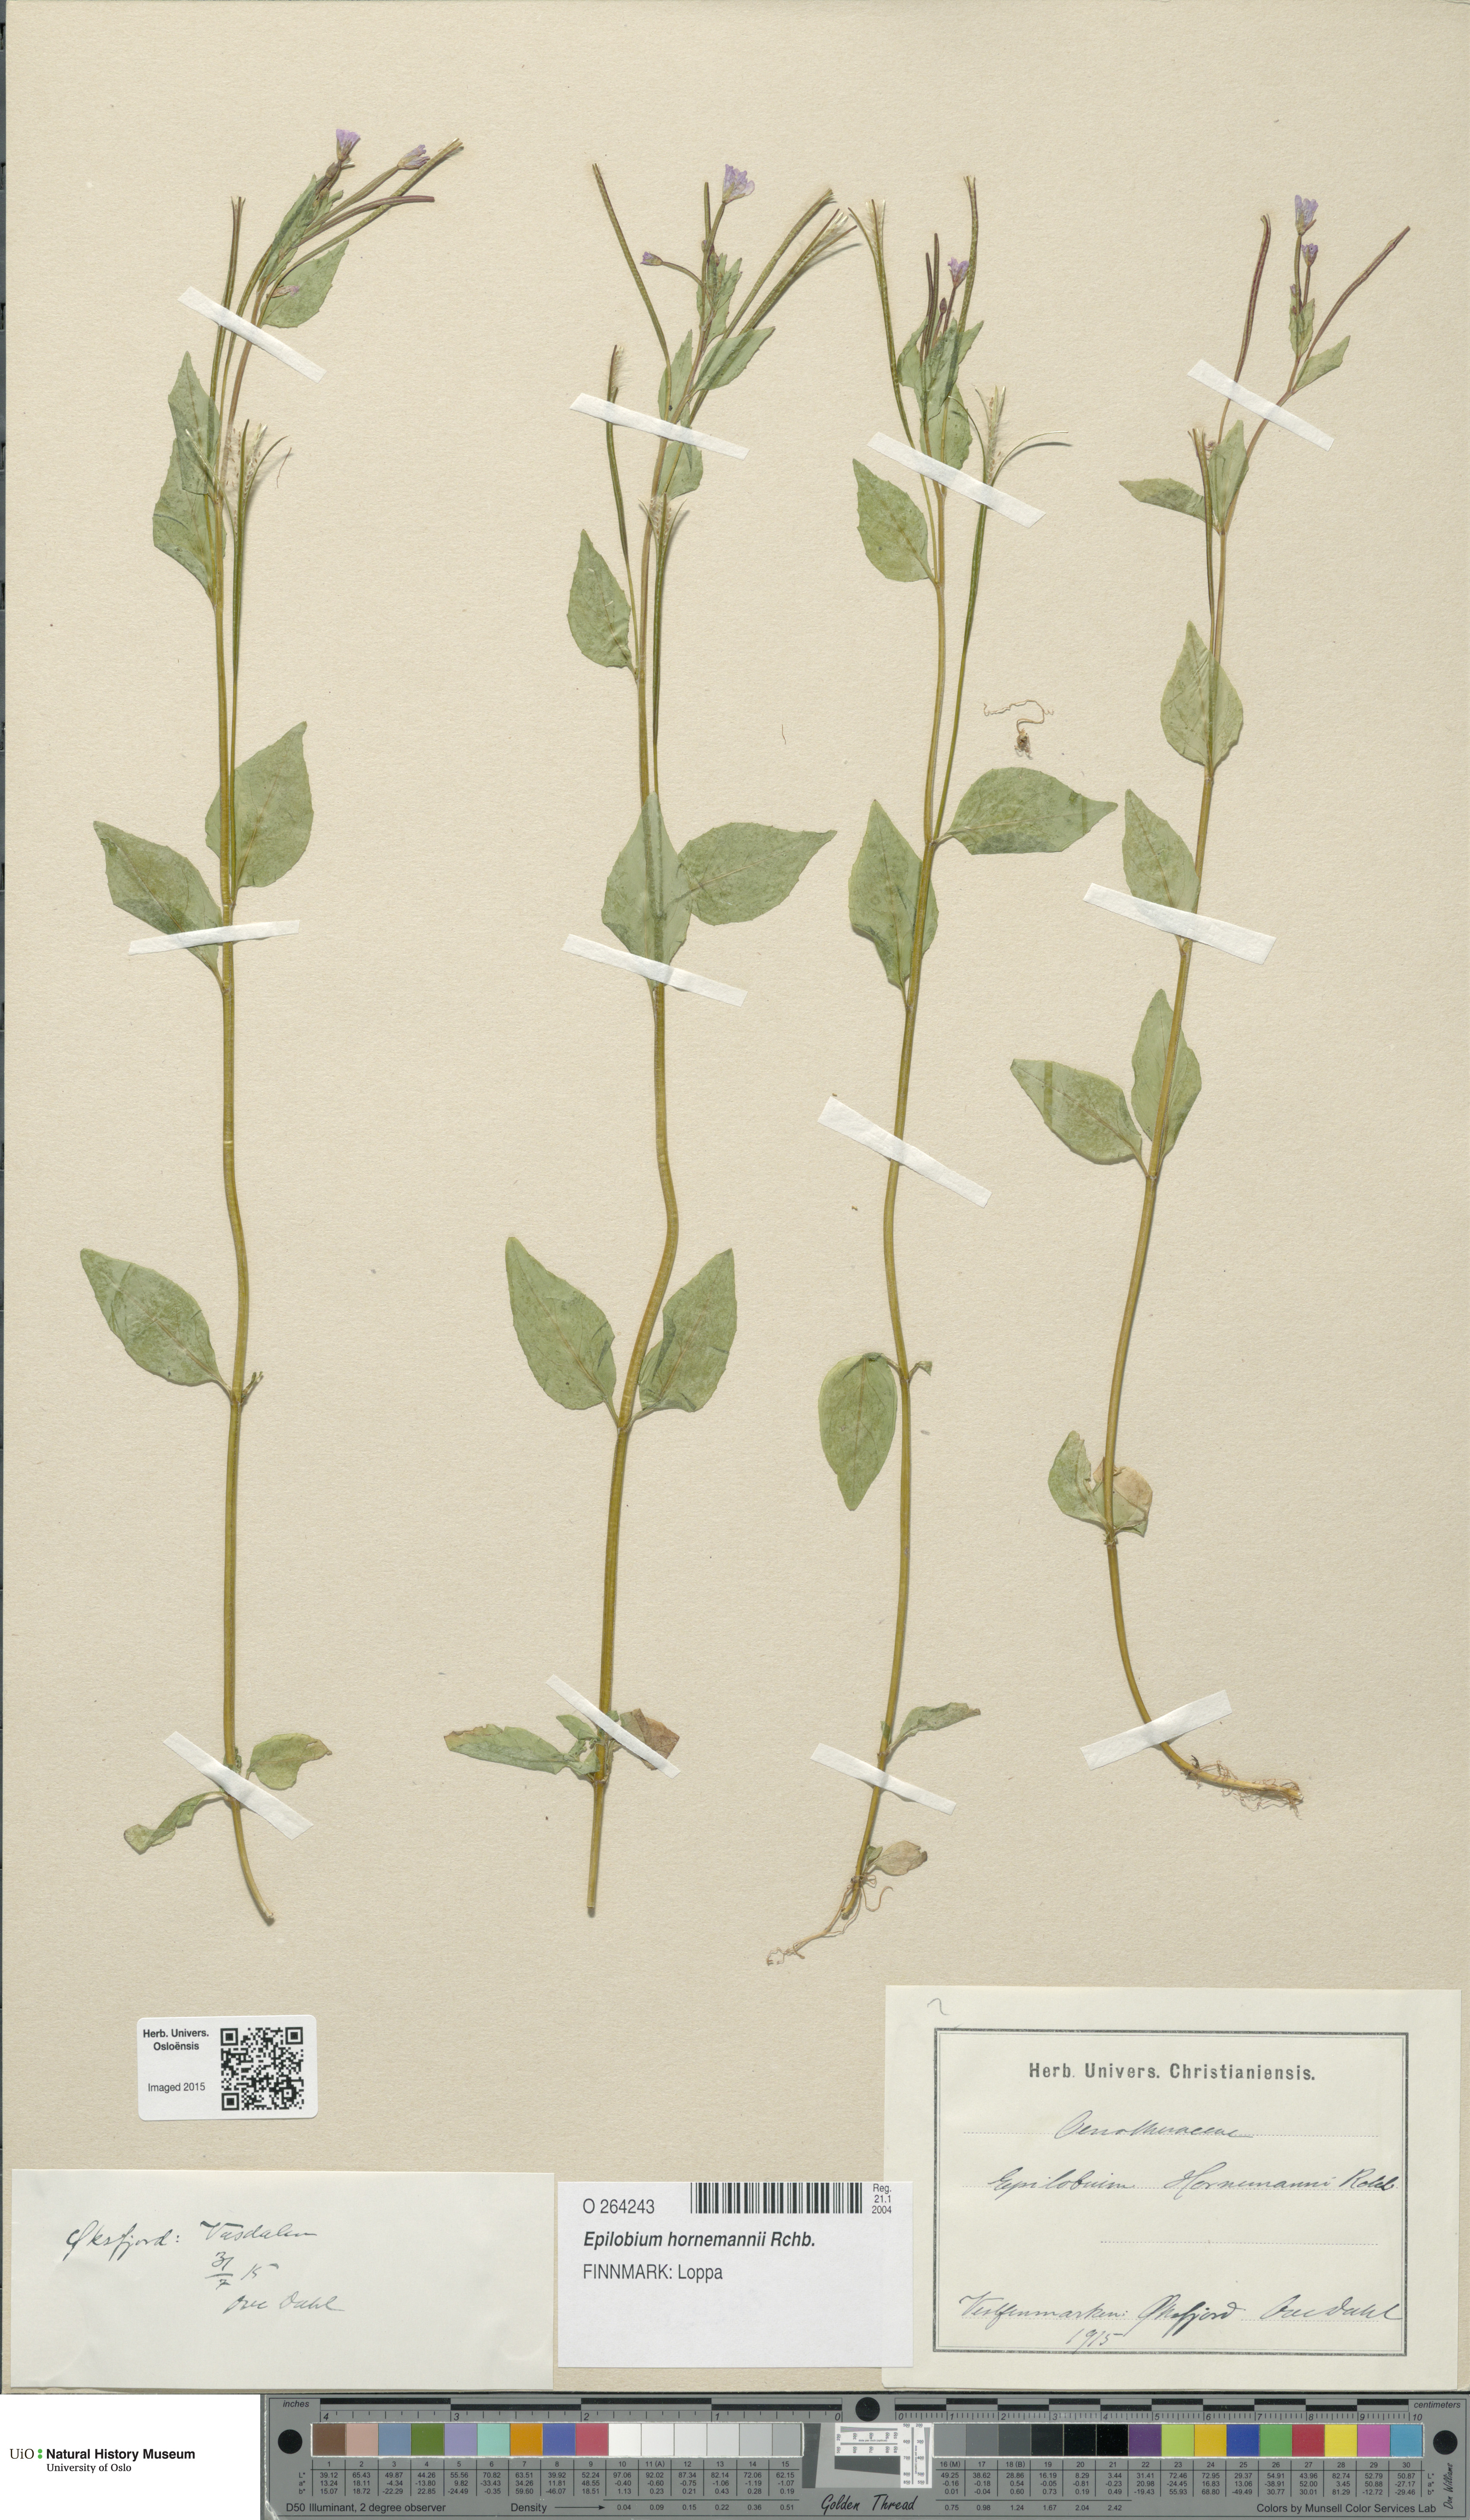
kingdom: Plantae
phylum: Tracheophyta
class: Magnoliopsida
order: Myrtales
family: Onagraceae
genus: Epilobium
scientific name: Epilobium hornemannii
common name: Hornemann's willowherb
